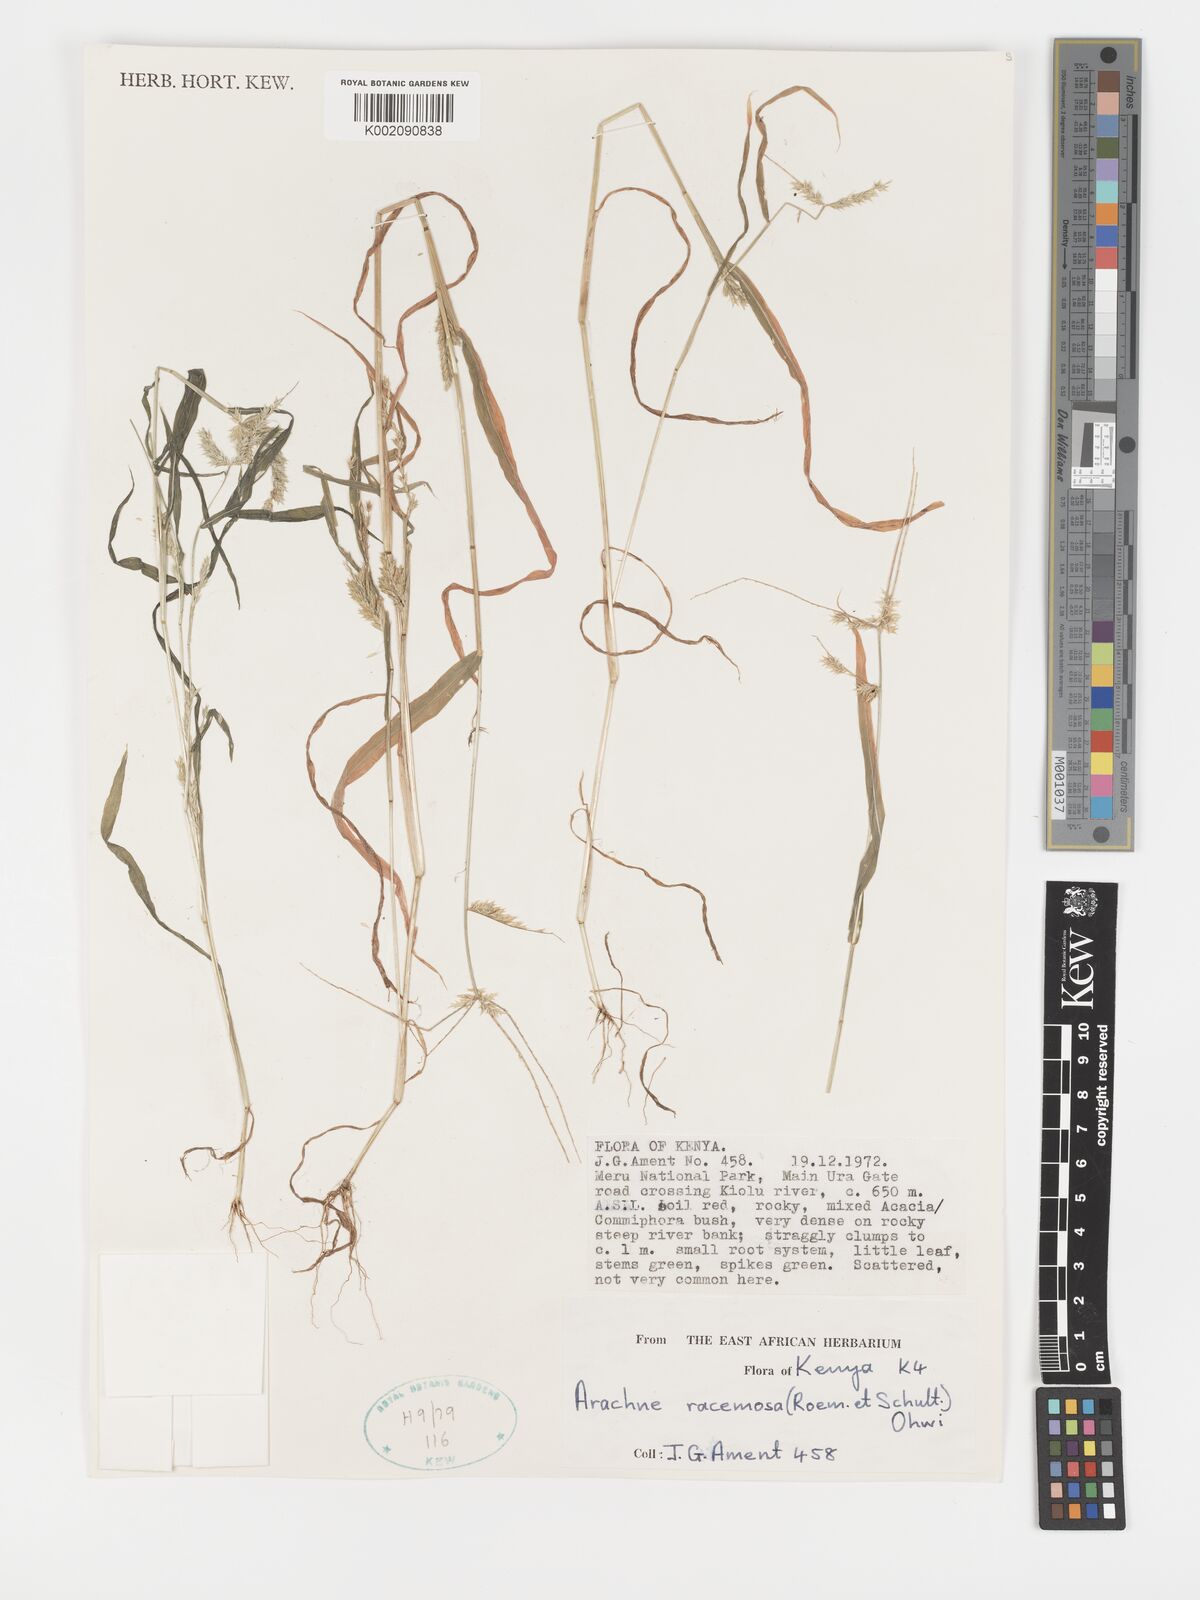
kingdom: Plantae
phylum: Tracheophyta
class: Liliopsida
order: Poales
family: Poaceae
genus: Acrachne
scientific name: Acrachne racemosa
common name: Goosegrass
